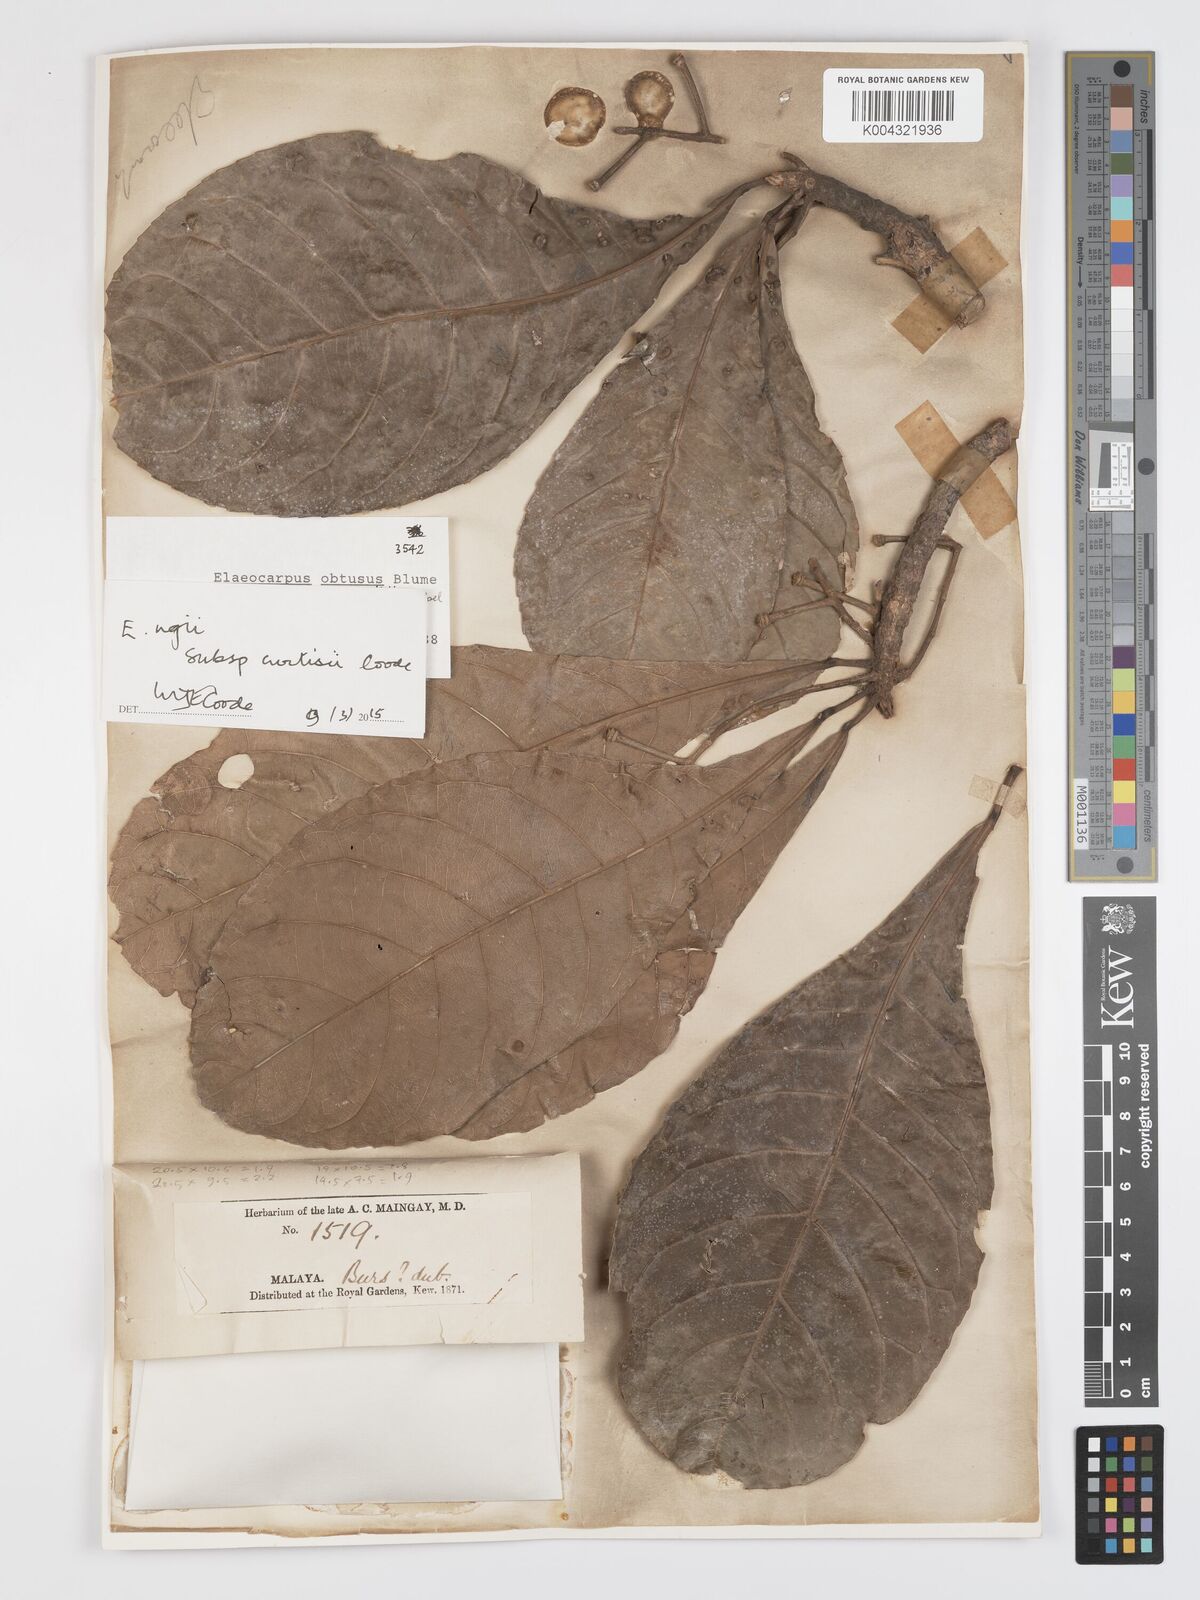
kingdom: Plantae
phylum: Tracheophyta
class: Magnoliopsida
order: Oxalidales
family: Elaeocarpaceae
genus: Elaeocarpus
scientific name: Elaeocarpus ngii
